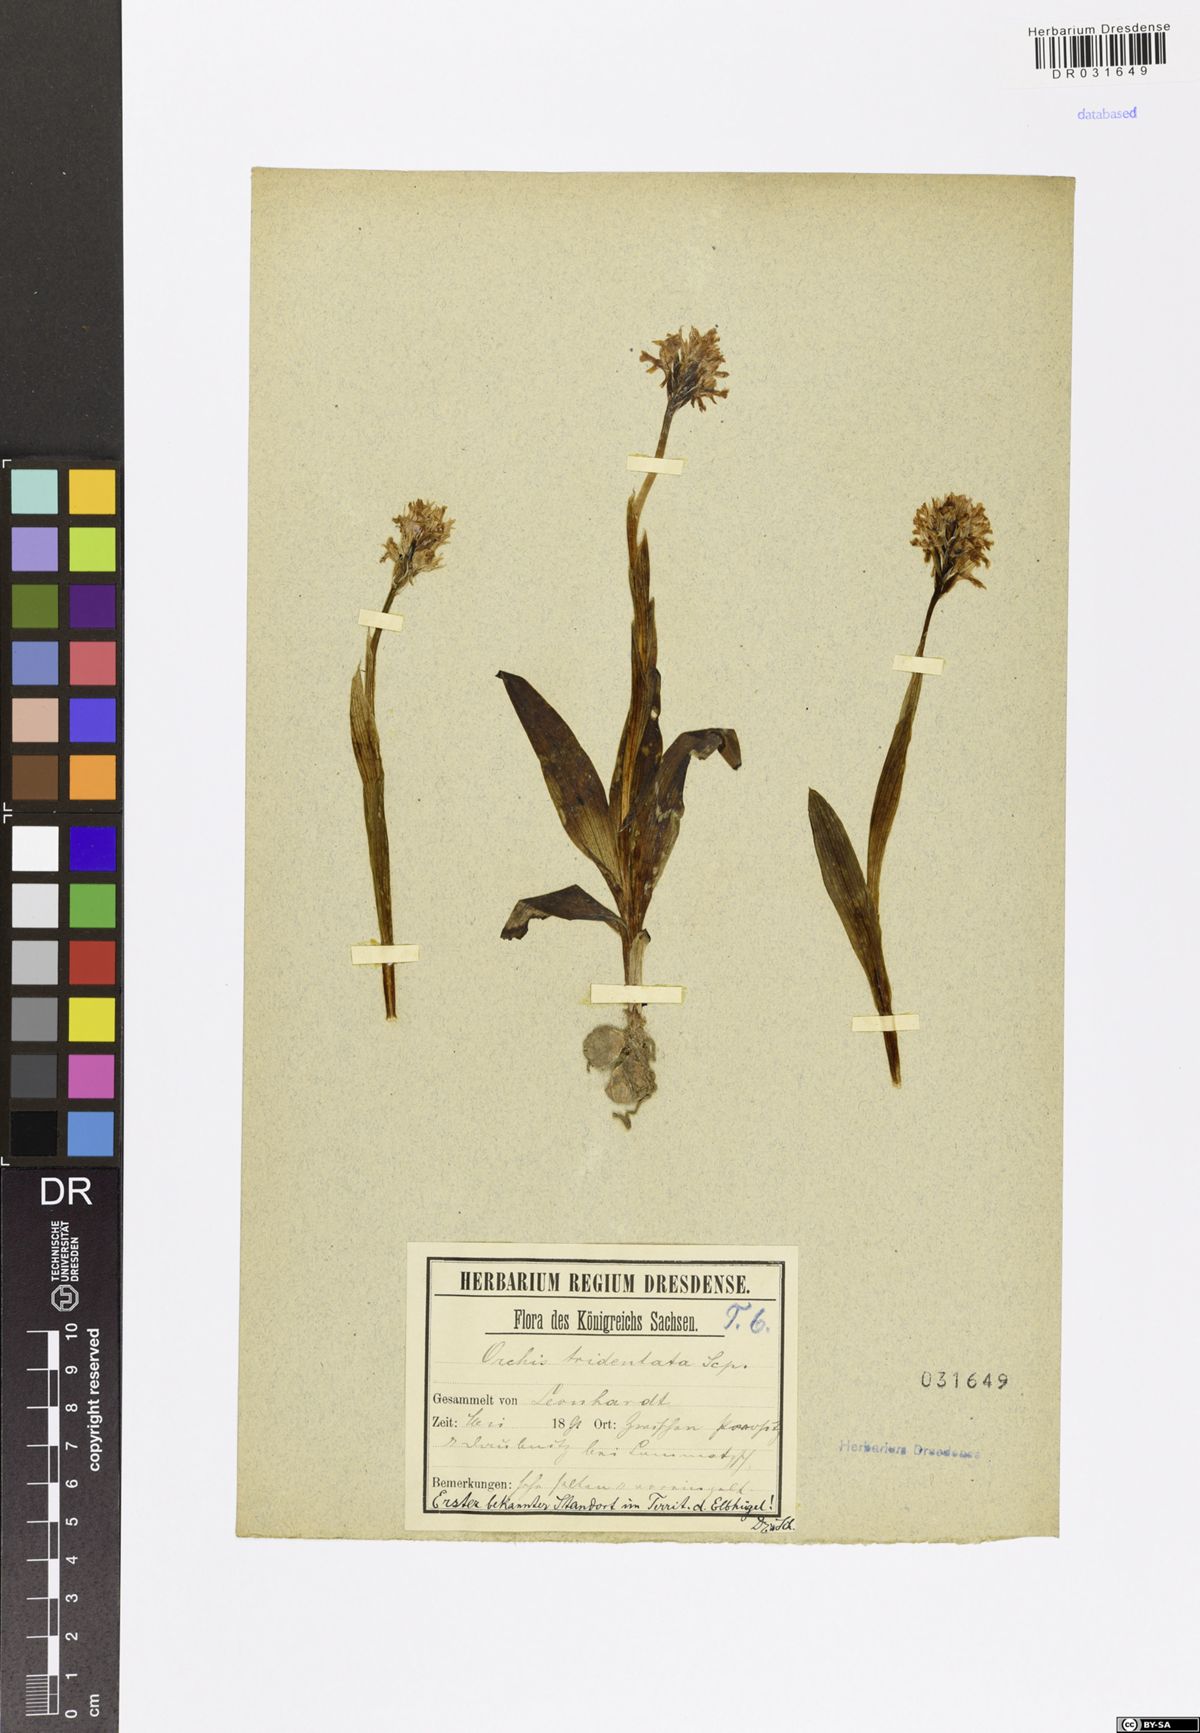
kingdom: Plantae
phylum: Tracheophyta
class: Liliopsida
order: Asparagales
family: Orchidaceae
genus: Neotinea
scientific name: Neotinea tridentata
